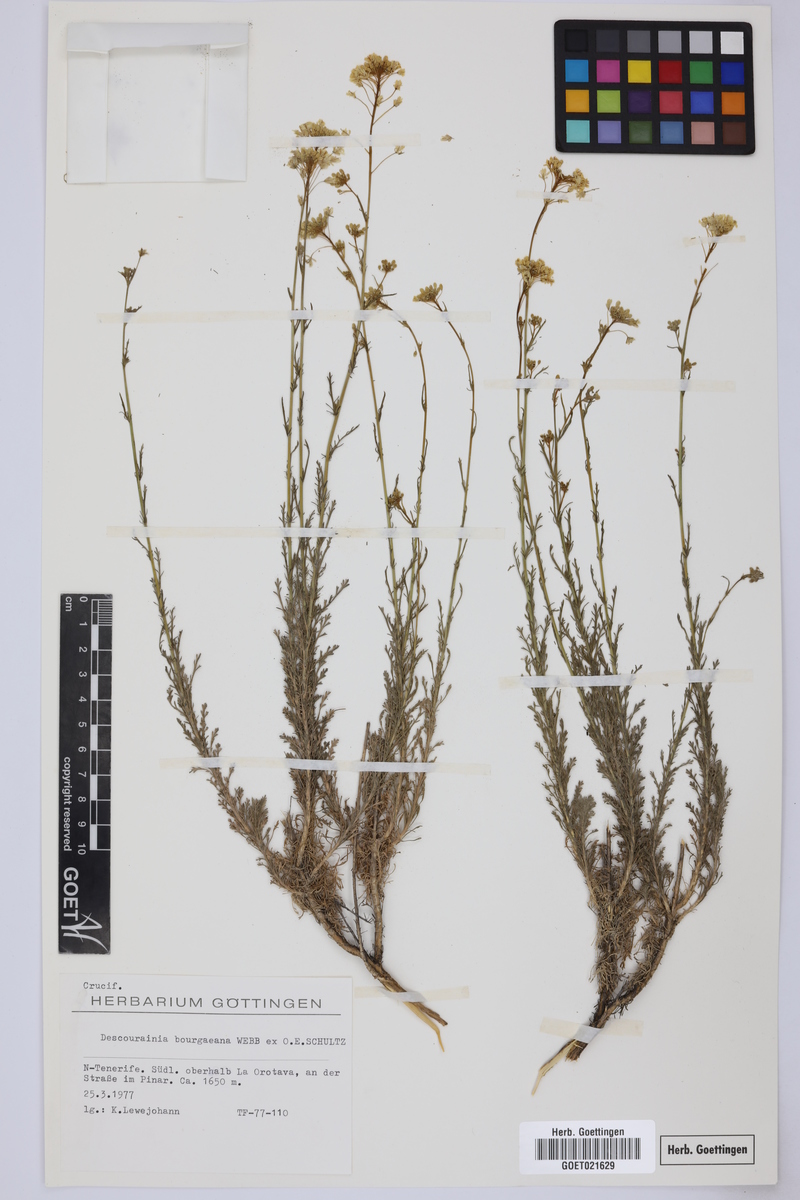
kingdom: Plantae
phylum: Tracheophyta
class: Magnoliopsida
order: Brassicales
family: Brassicaceae
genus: Descurainia
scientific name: Descurainia bourgaeana
